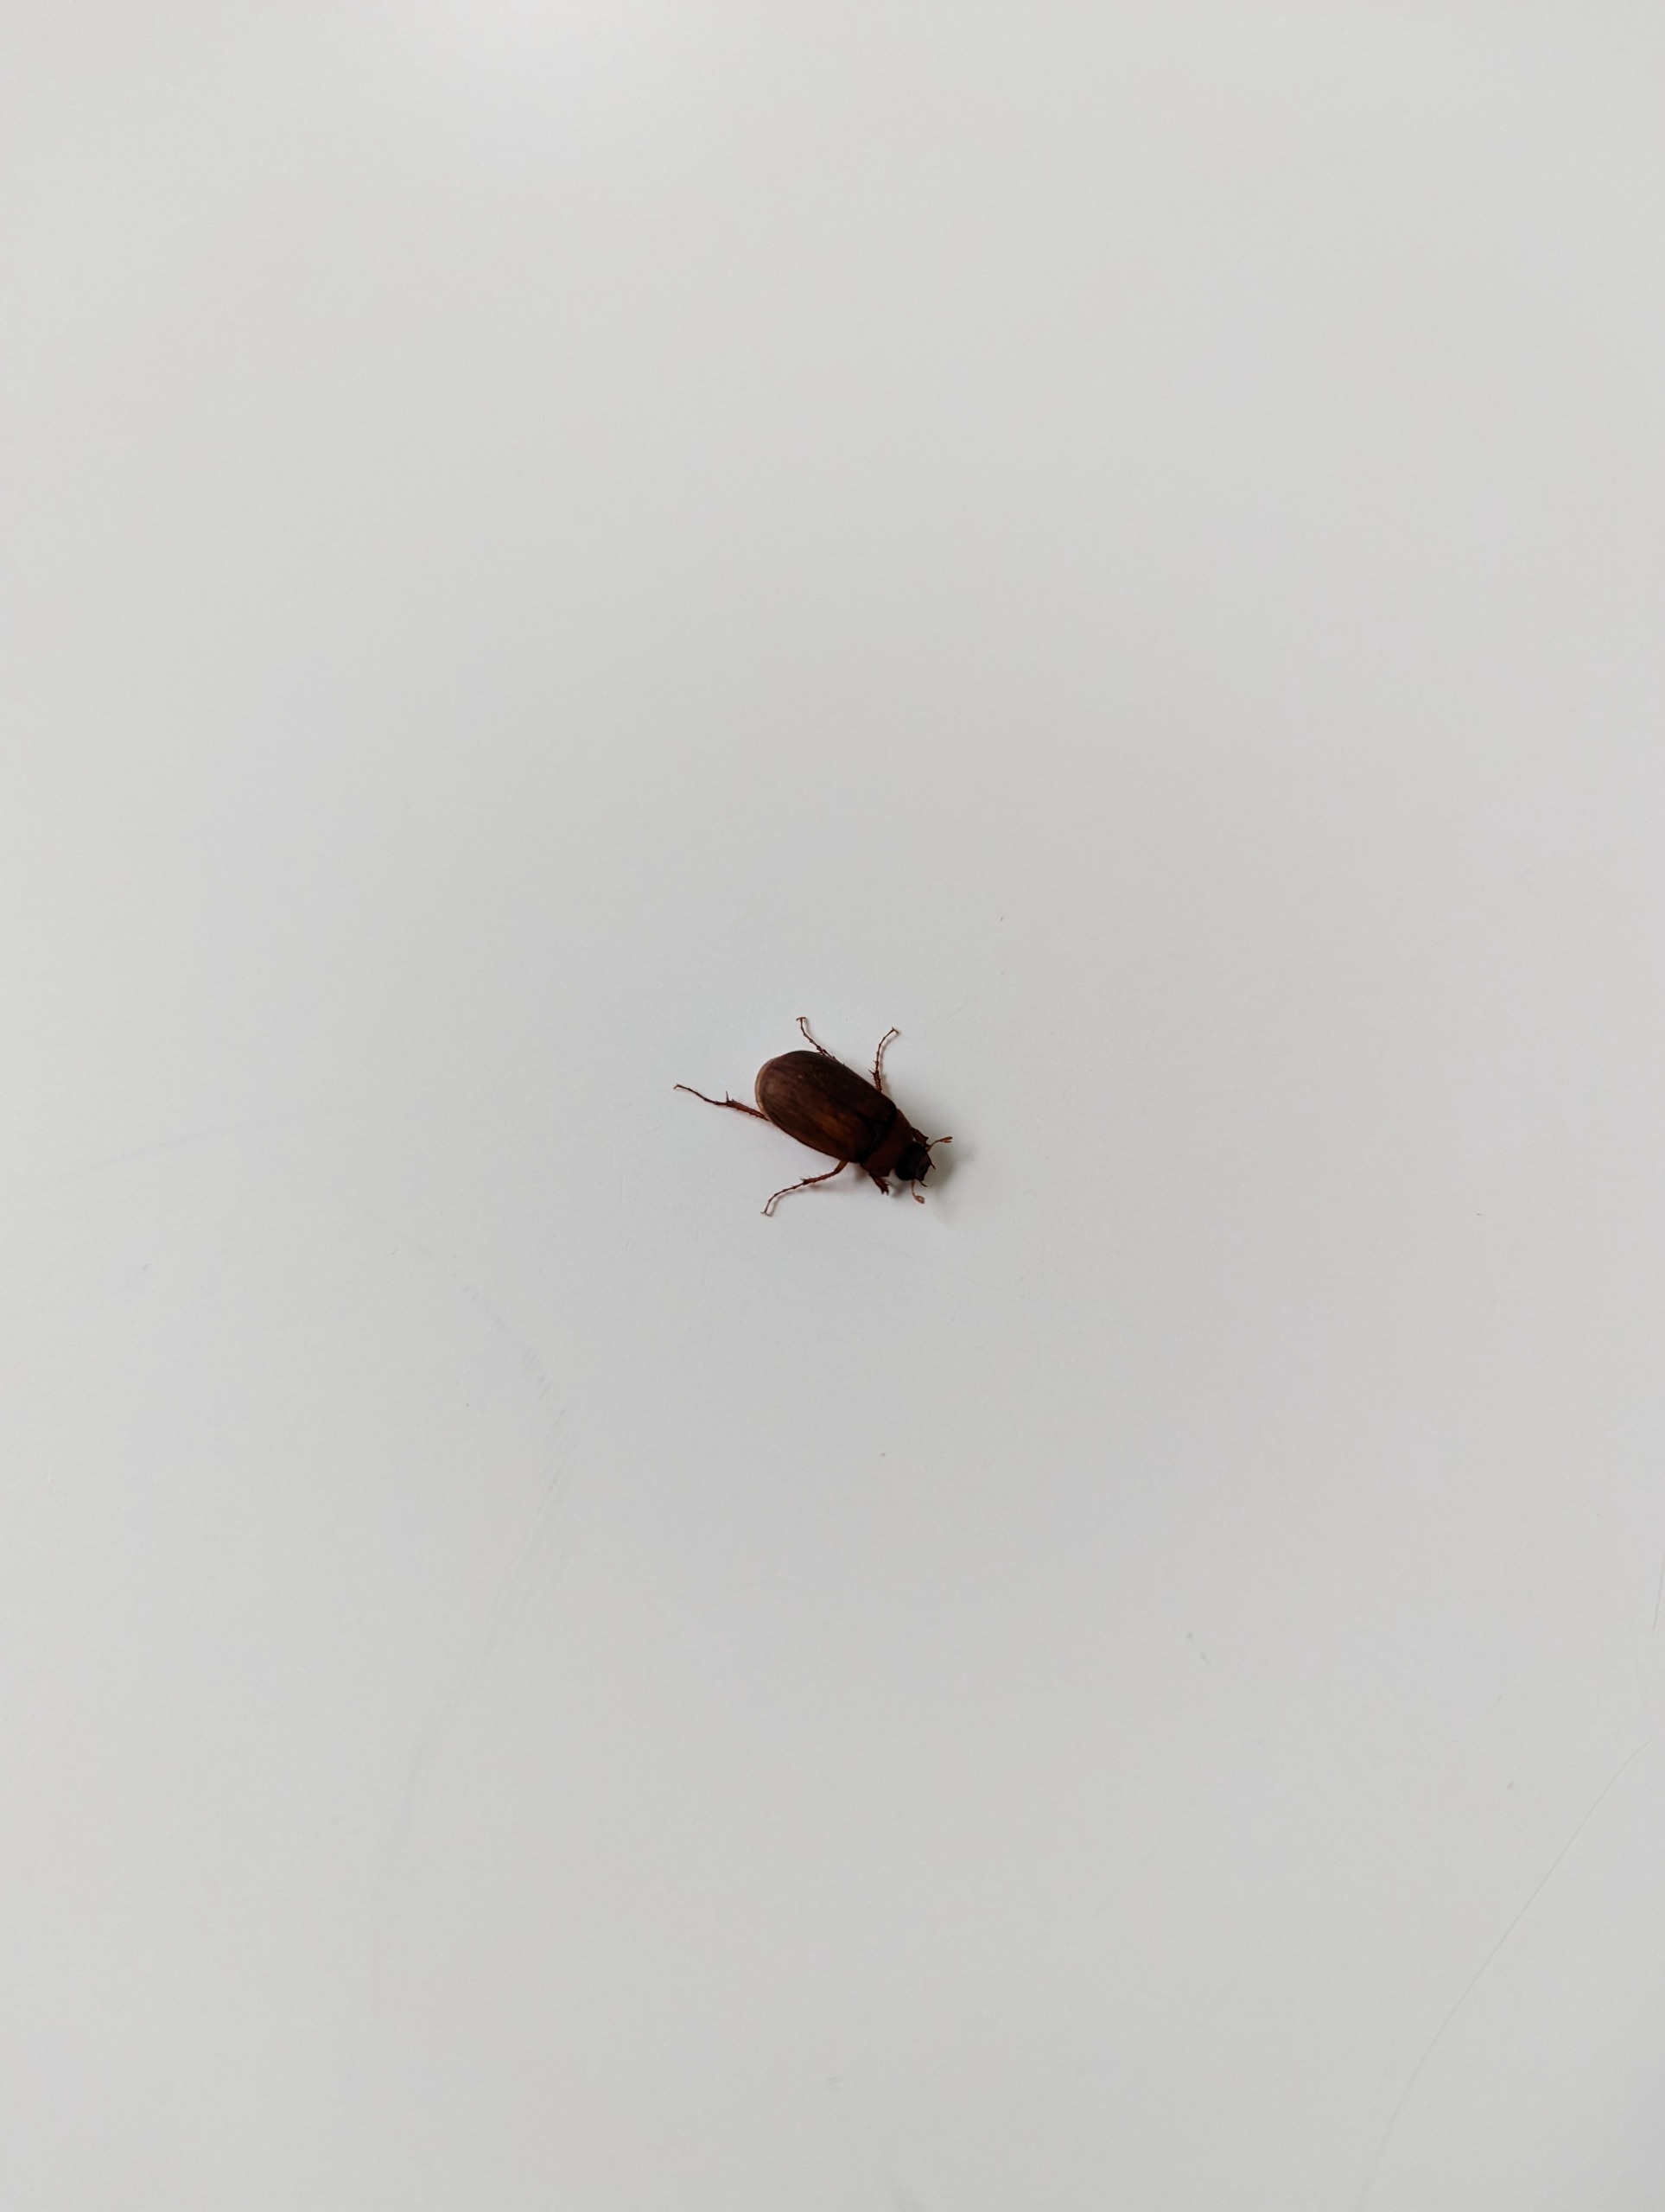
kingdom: Animalia
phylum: Arthropoda
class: Insecta
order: Coleoptera
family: Scarabaeidae
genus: Serica
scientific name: Serica brunnea
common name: Natoldenborre
